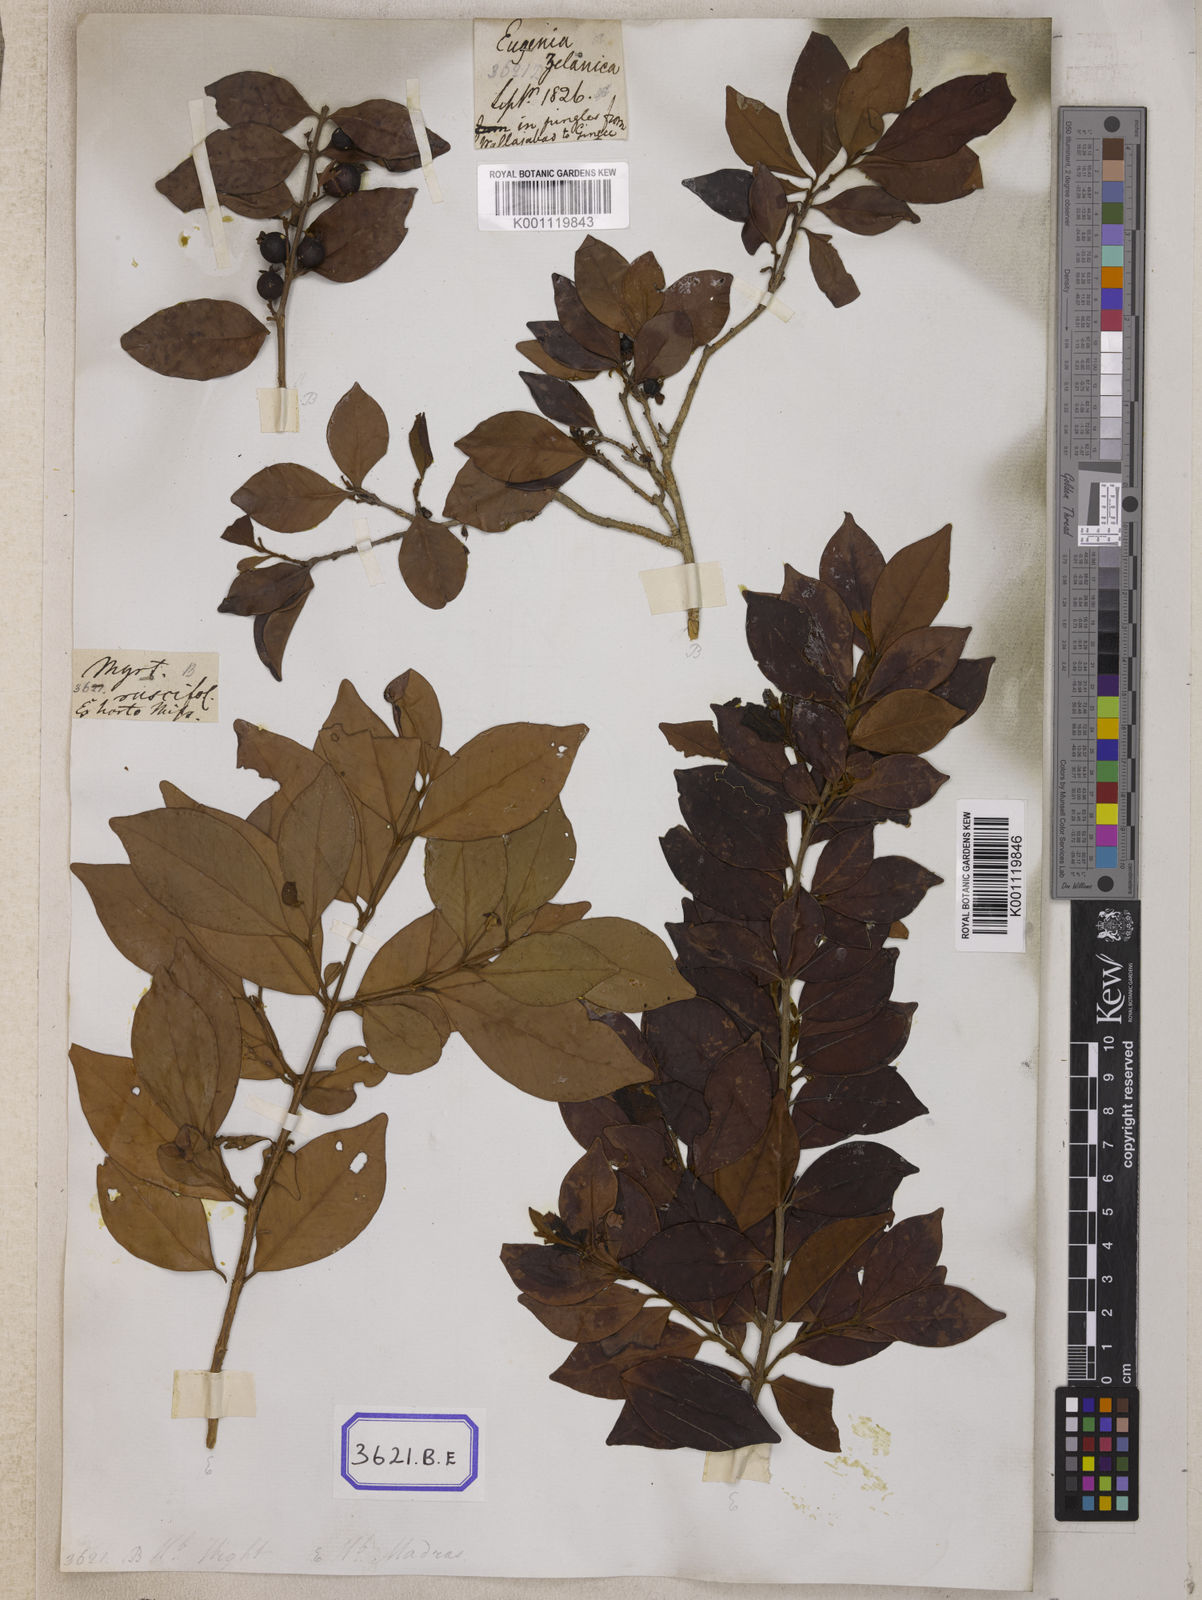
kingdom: Plantae
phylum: Tracheophyta
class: Magnoliopsida
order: Myrtales
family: Myrtaceae
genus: Eugenia
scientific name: Eugenia roxburghii
